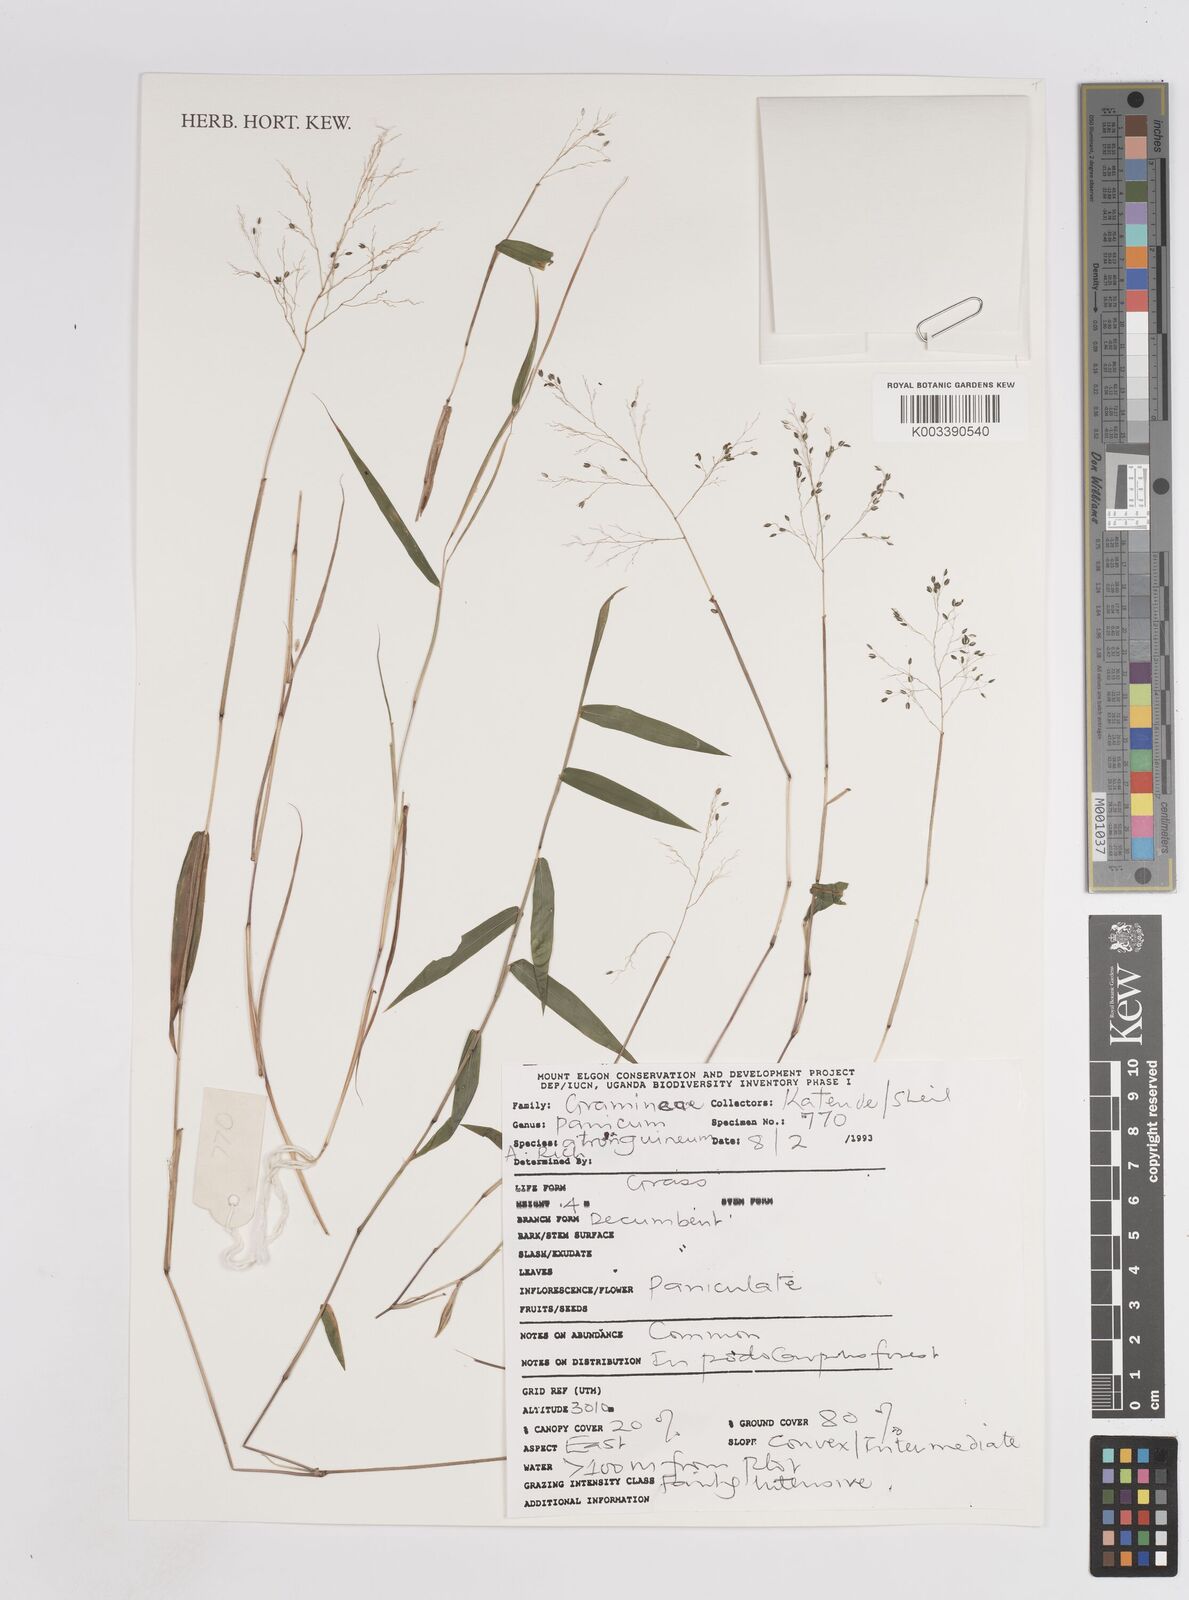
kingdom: Plantae
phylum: Tracheophyta
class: Liliopsida
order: Poales
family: Poaceae
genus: Panicum
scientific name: Panicum atrosanguineum
